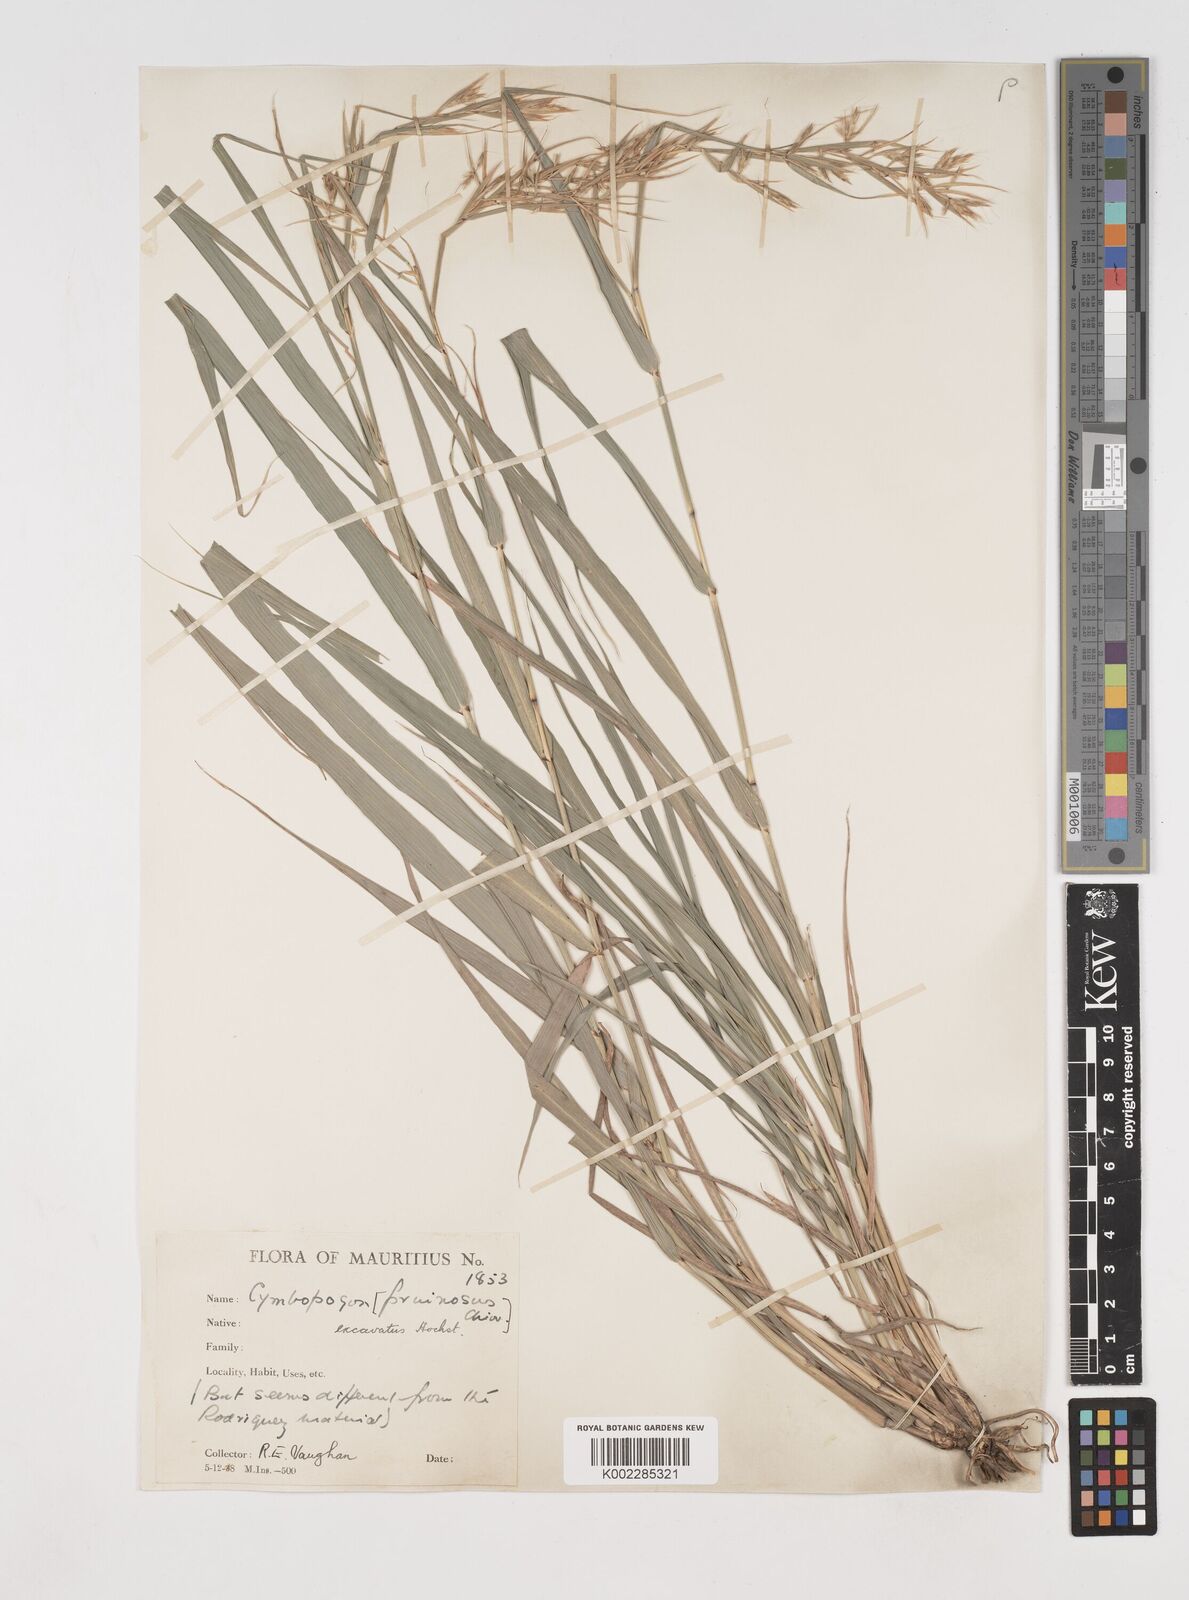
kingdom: Plantae
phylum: Tracheophyta
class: Liliopsida
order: Poales
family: Poaceae
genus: Cymbopogon
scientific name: Cymbopogon pruinosus
